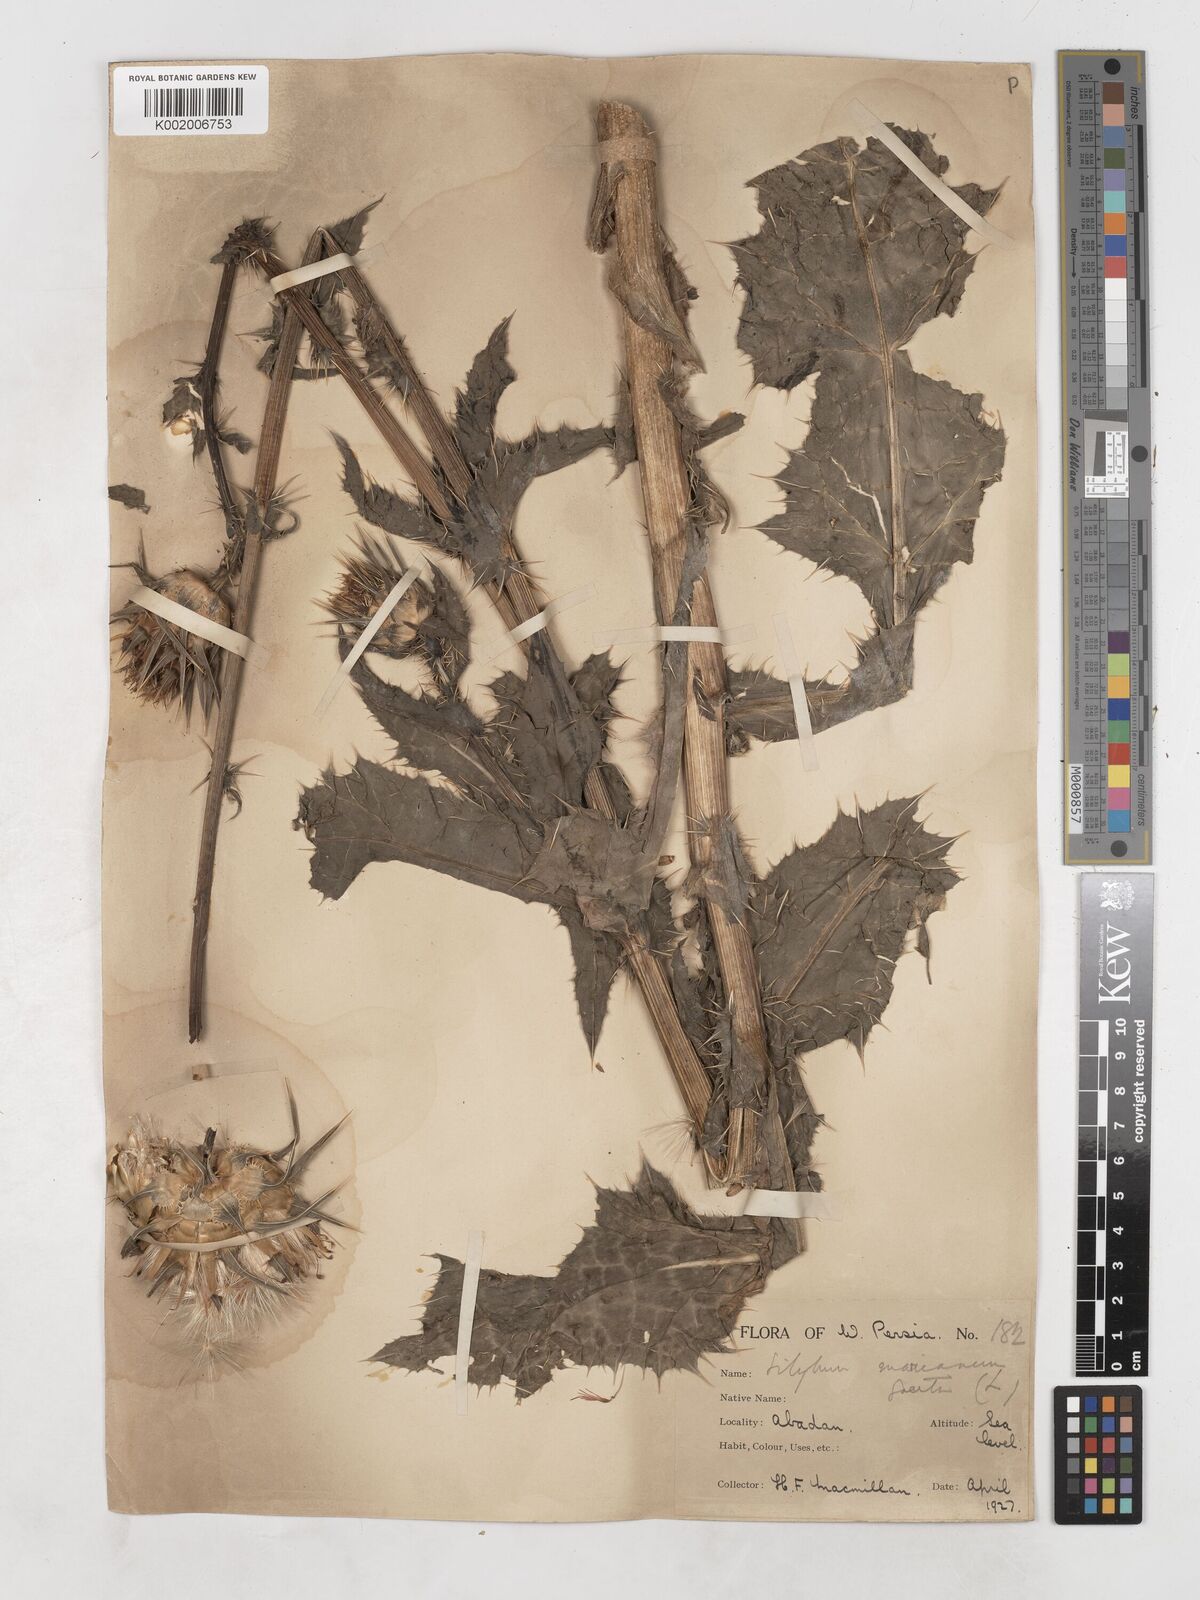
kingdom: Plantae
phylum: Tracheophyta
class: Magnoliopsida
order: Asterales
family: Asteraceae
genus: Silybum
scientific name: Silybum marianum
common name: Milk thistle
